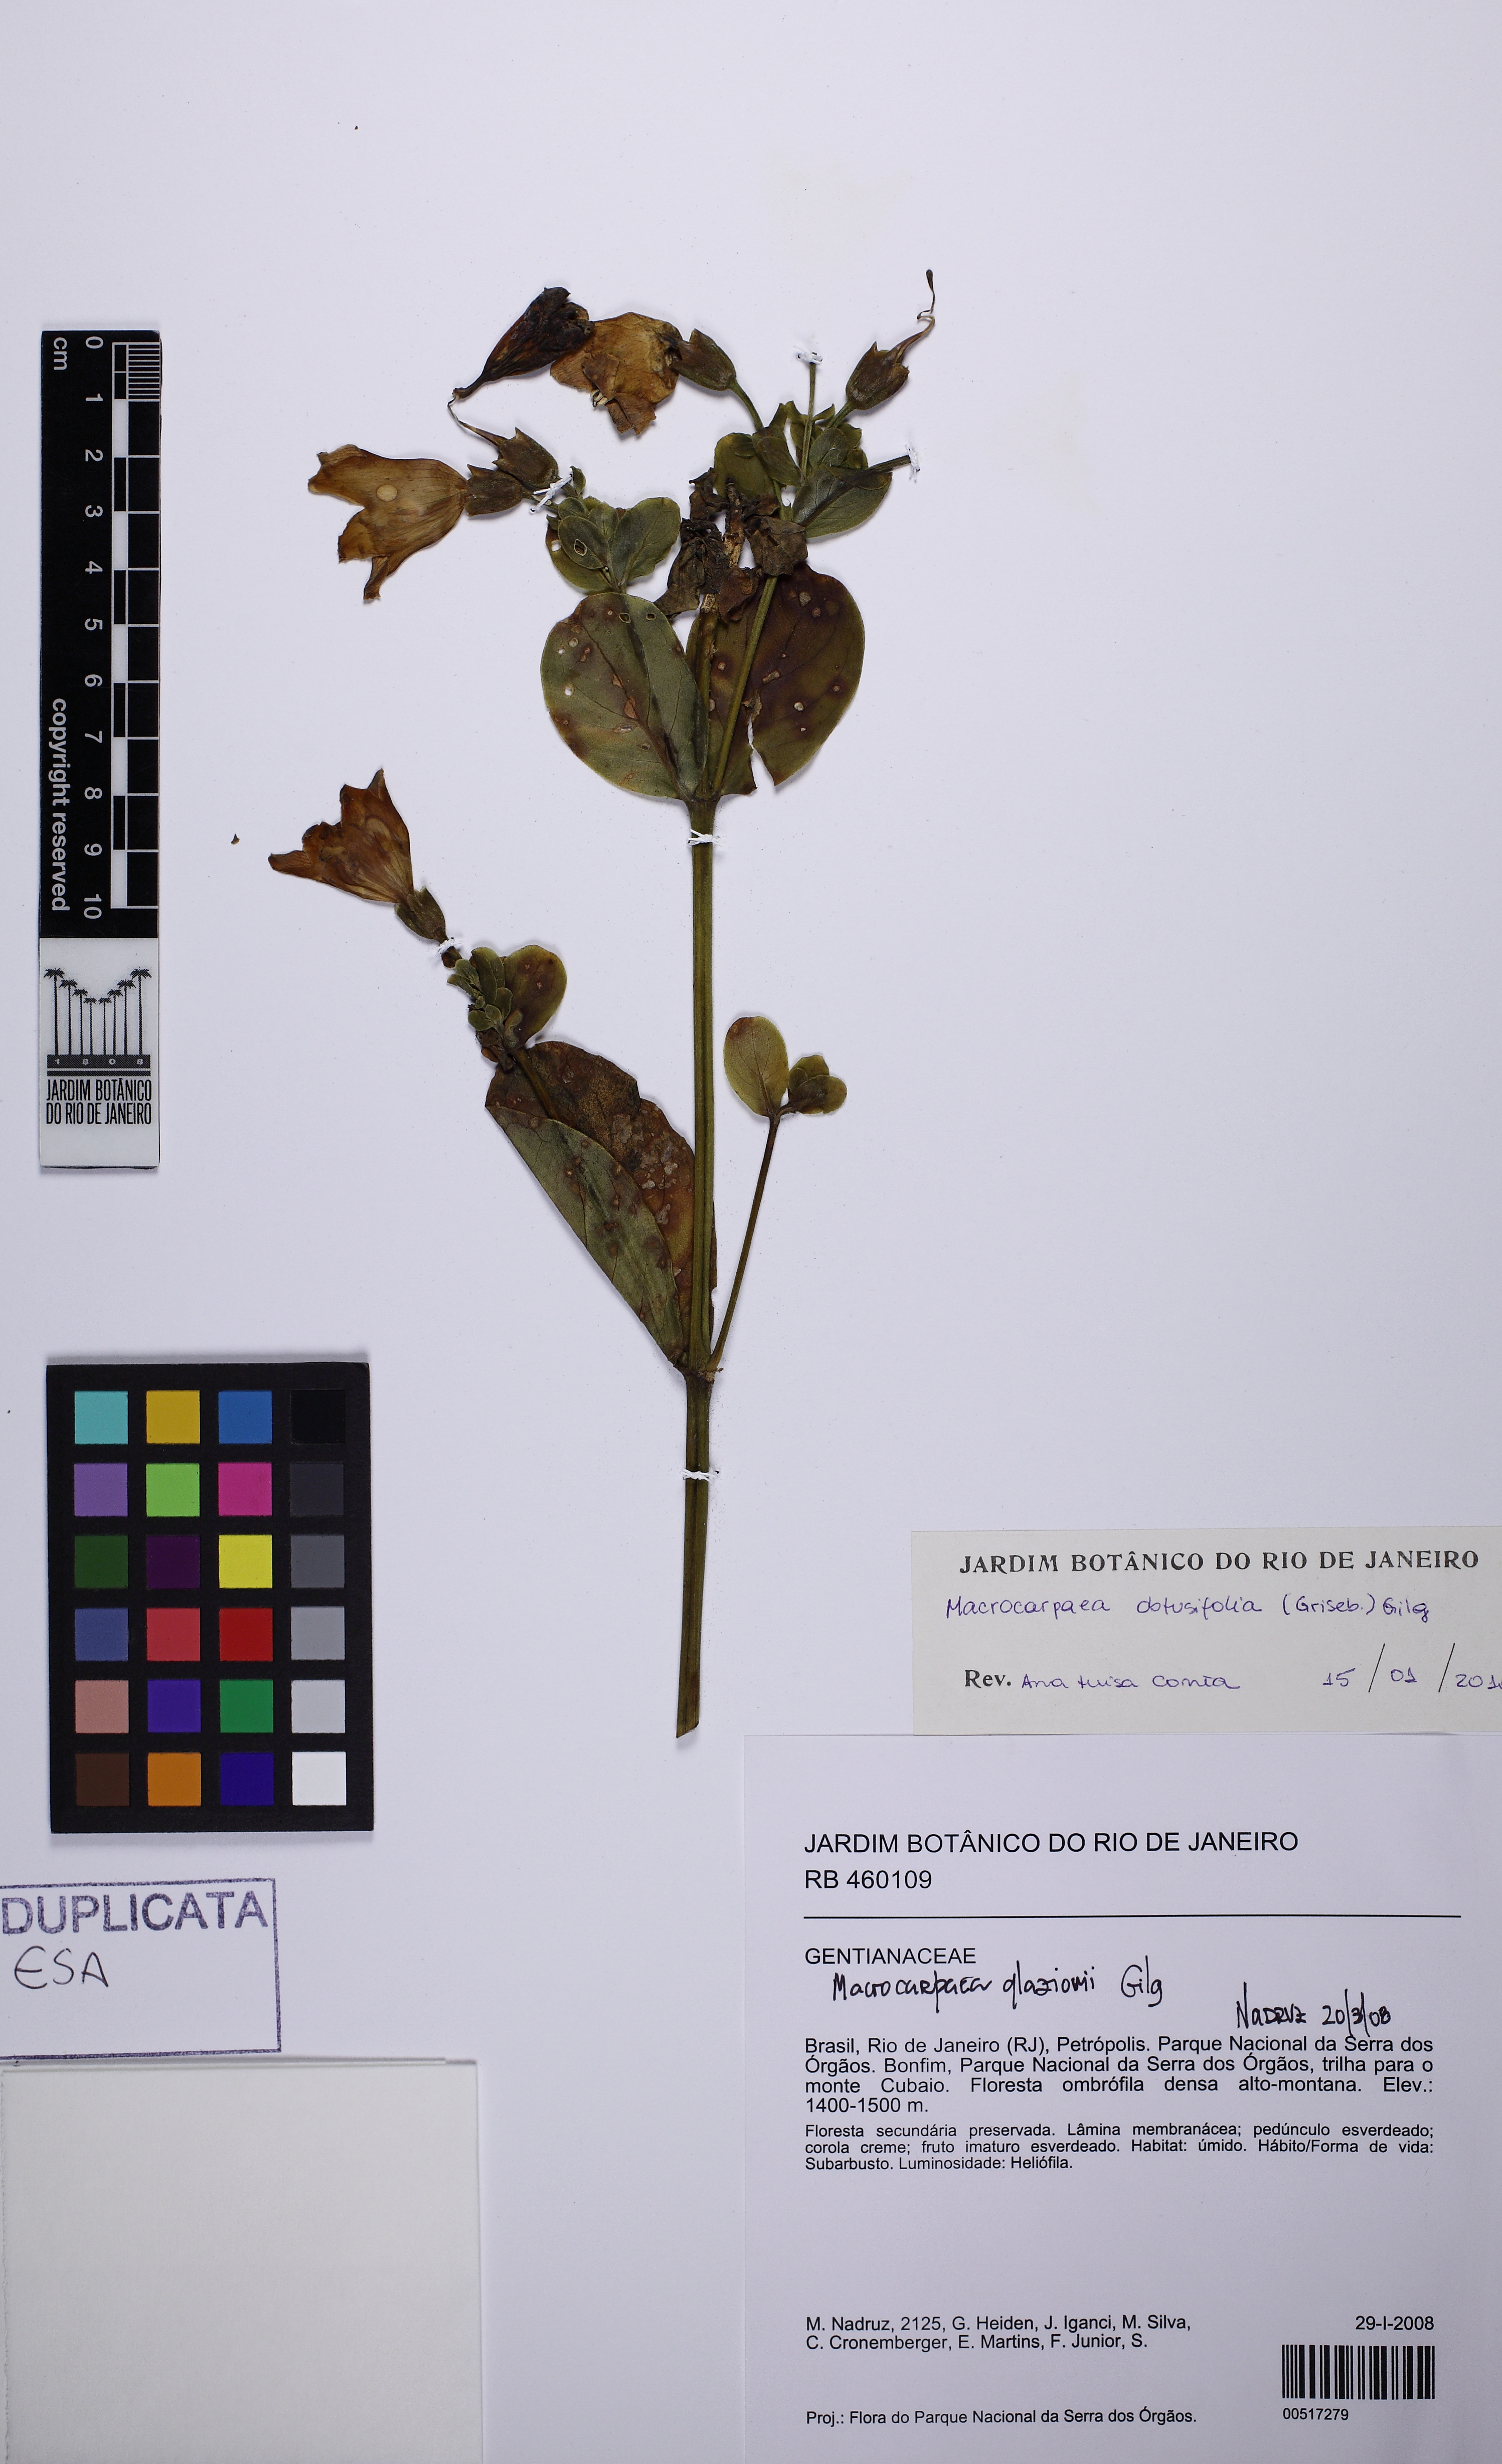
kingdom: Plantae
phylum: Tracheophyta
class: Magnoliopsida
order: Gentianales
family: Gentianaceae
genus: Macrocarpaea
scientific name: Macrocarpaea obtusifolia
